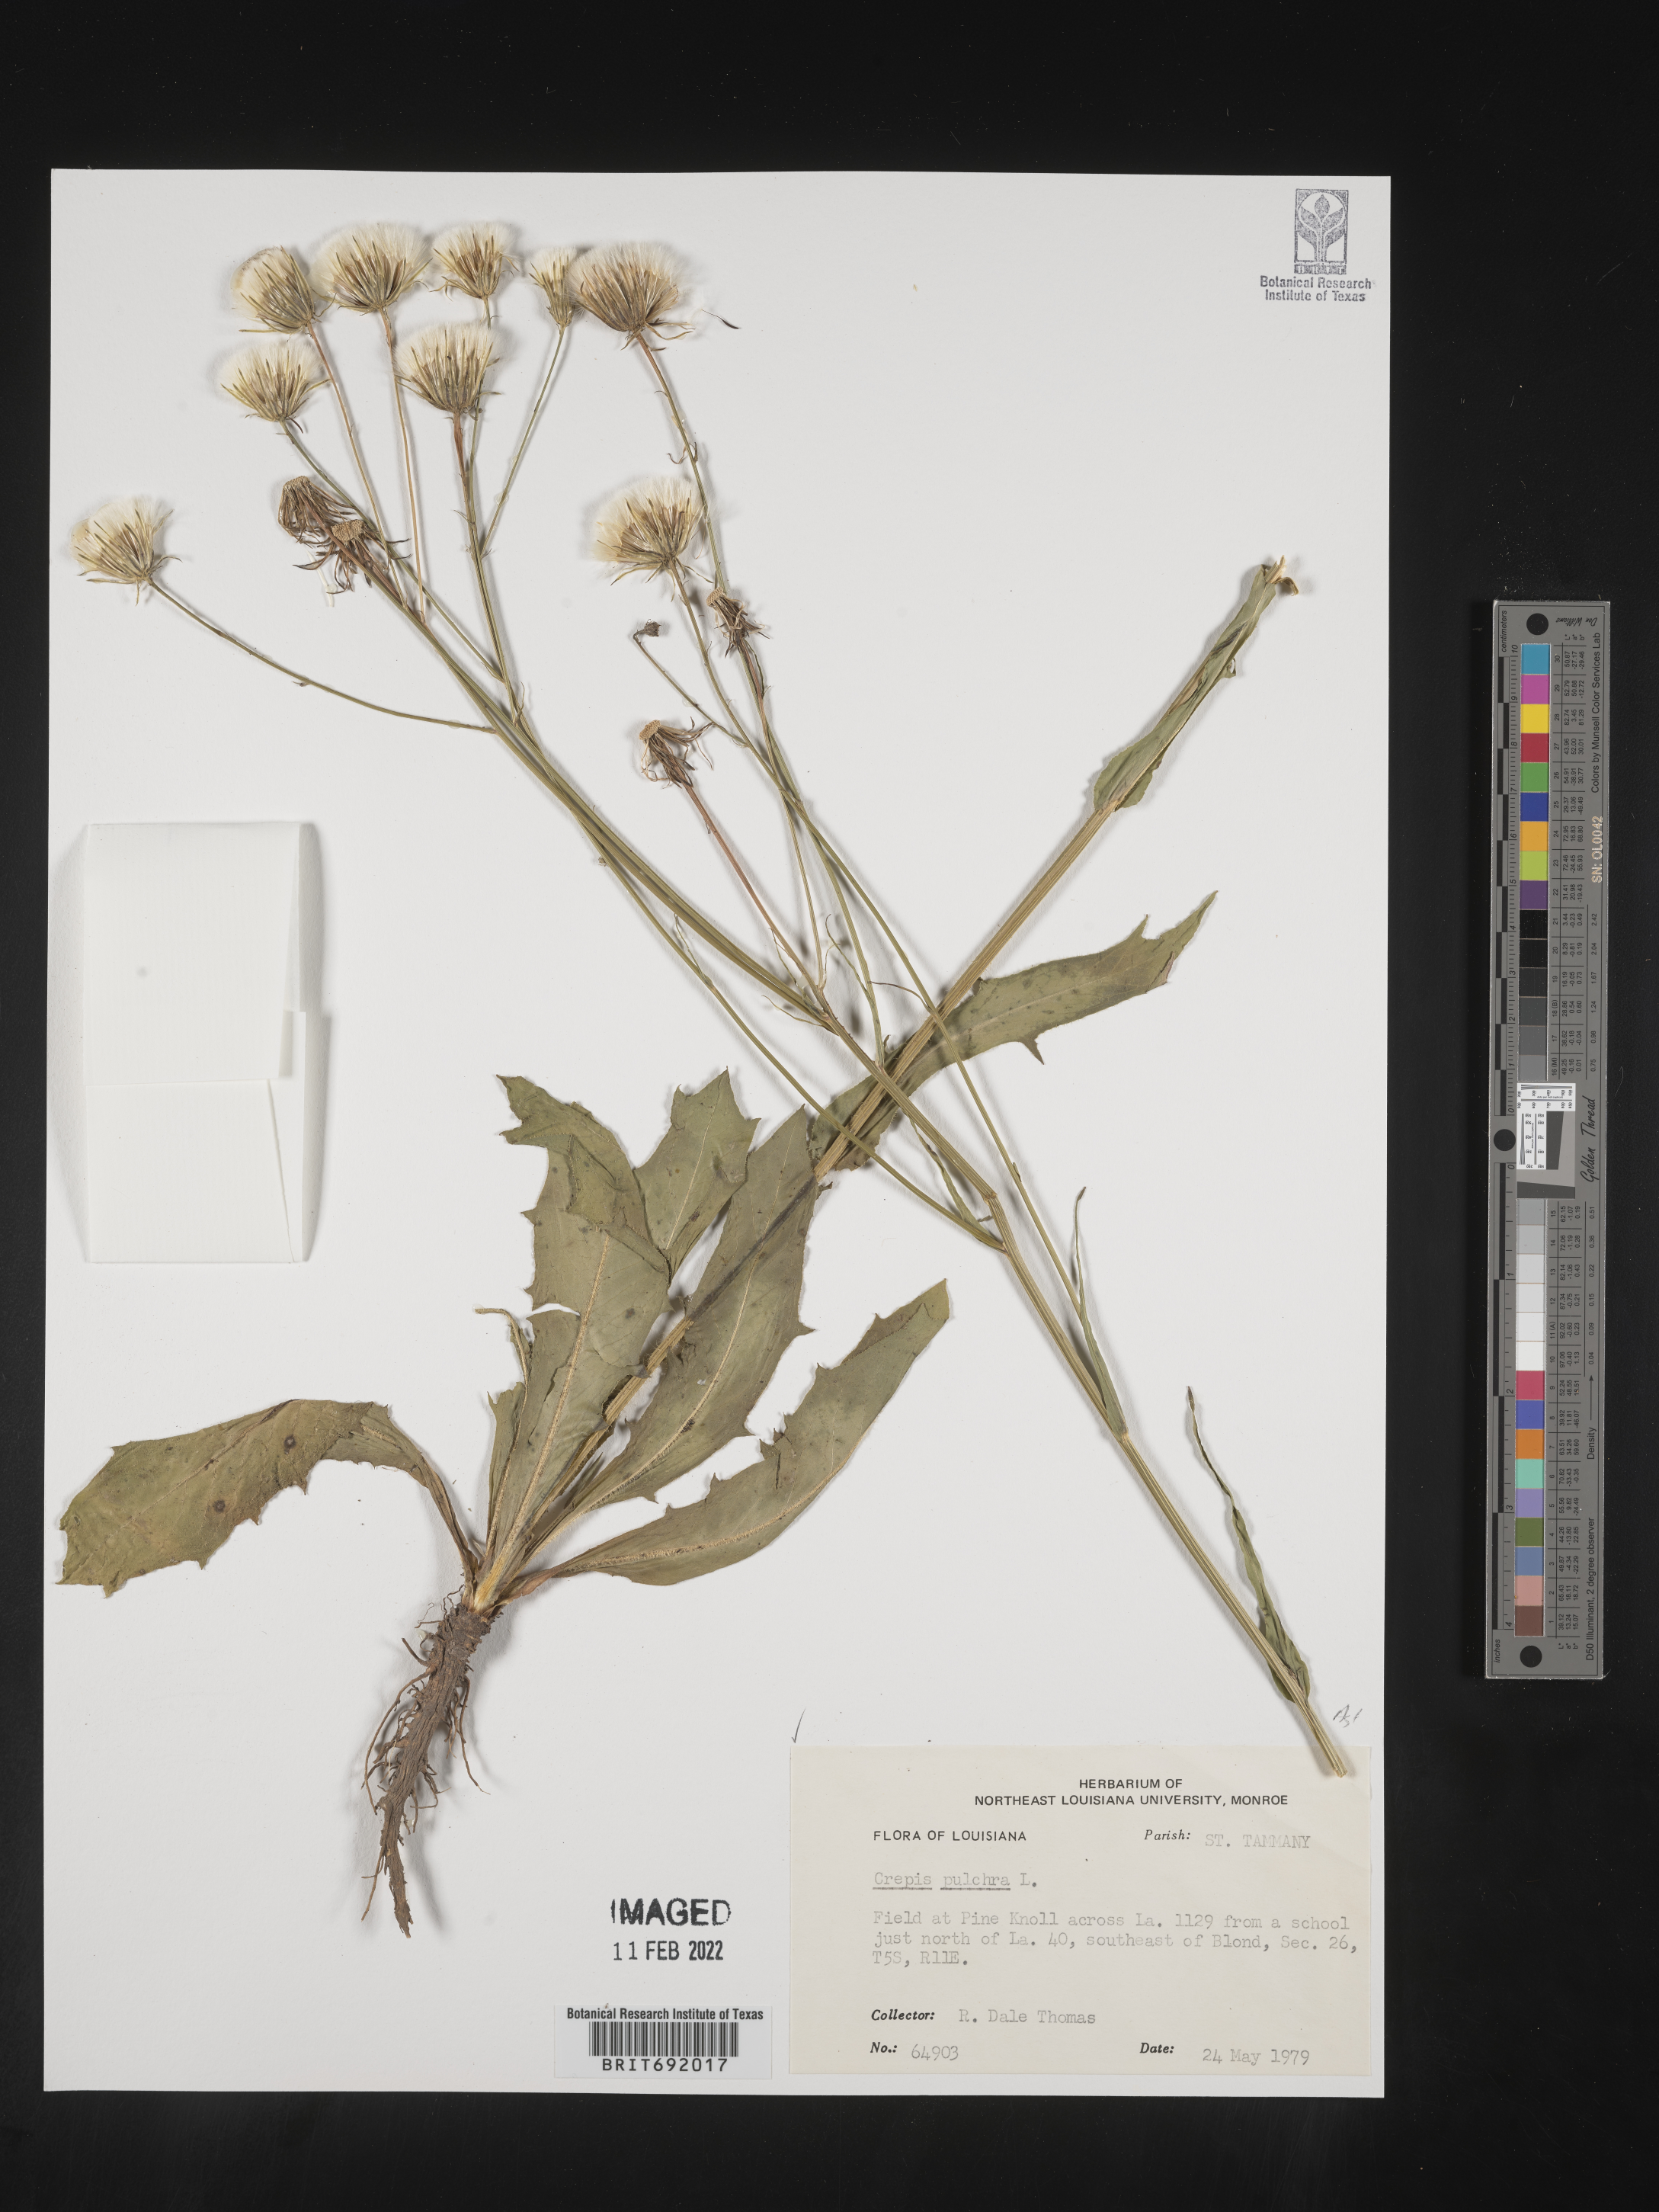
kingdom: Plantae
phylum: Tracheophyta
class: Magnoliopsida
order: Asterales
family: Asteraceae
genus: Crepis
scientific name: Crepis pulchra
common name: Hawk's-beard
